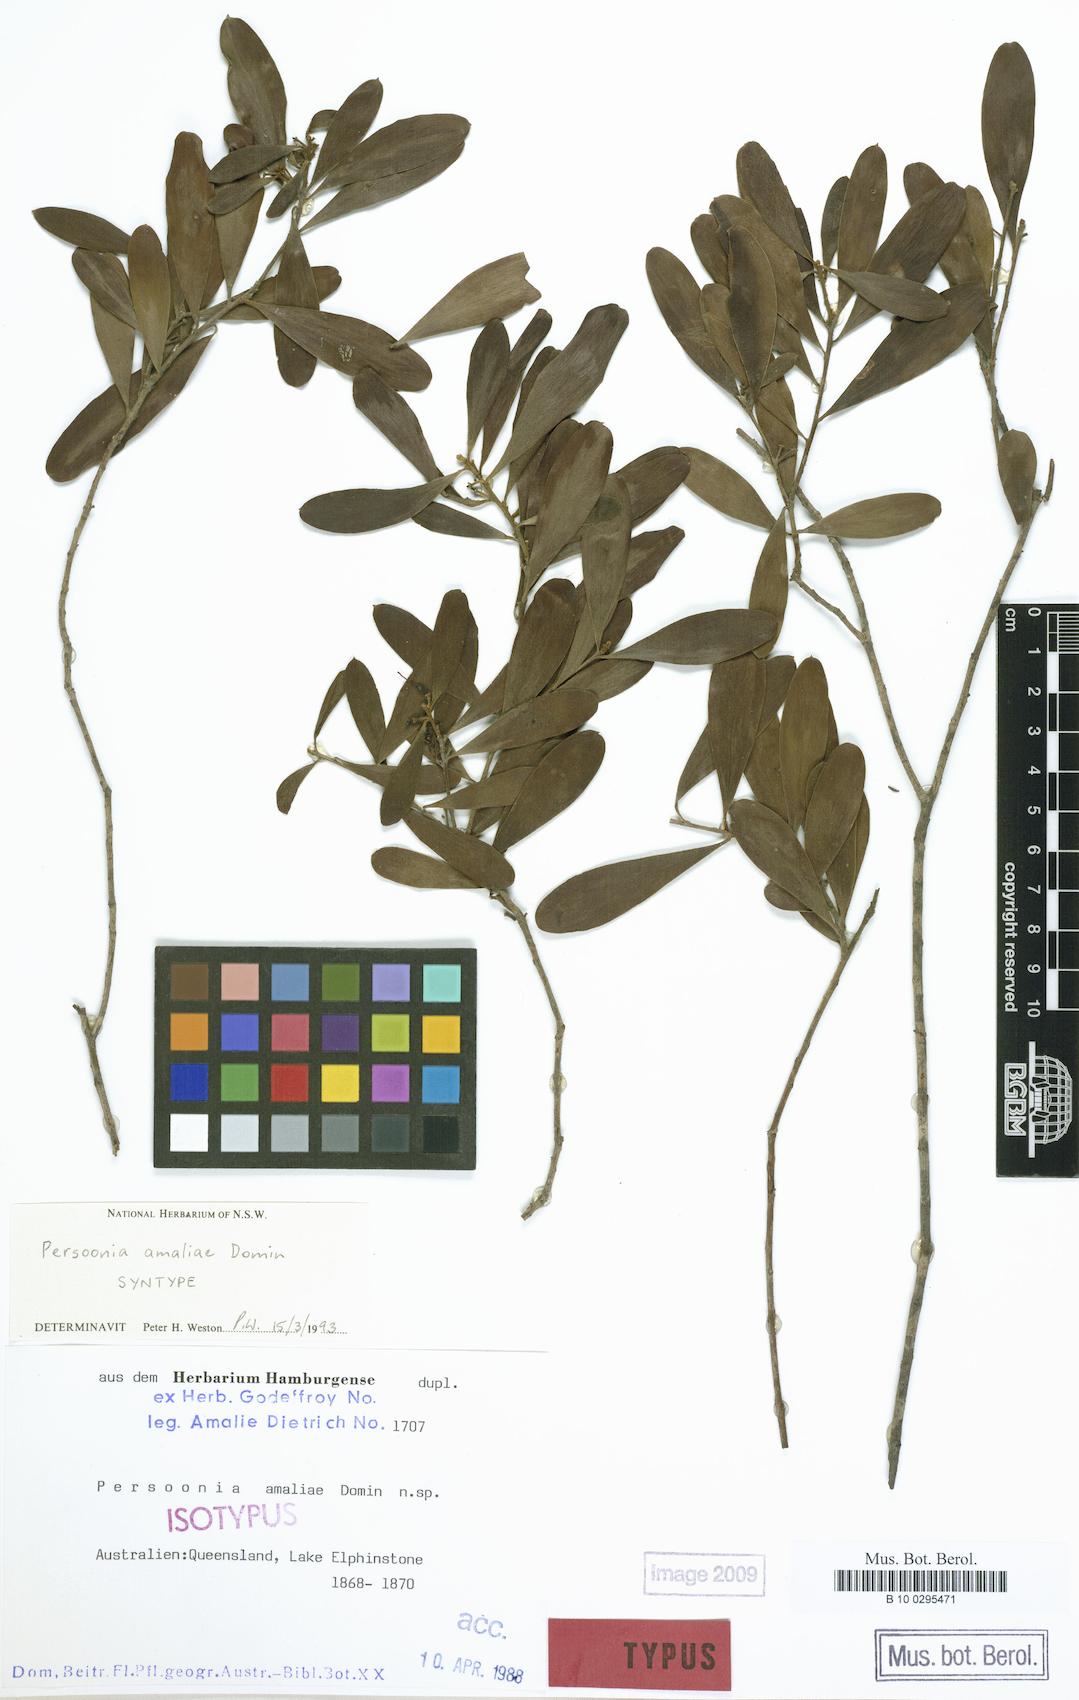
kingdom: Plantae
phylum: Tracheophyta
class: Magnoliopsida
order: Proteales
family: Proteaceae
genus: Persoonia
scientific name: Persoonia amaliae
